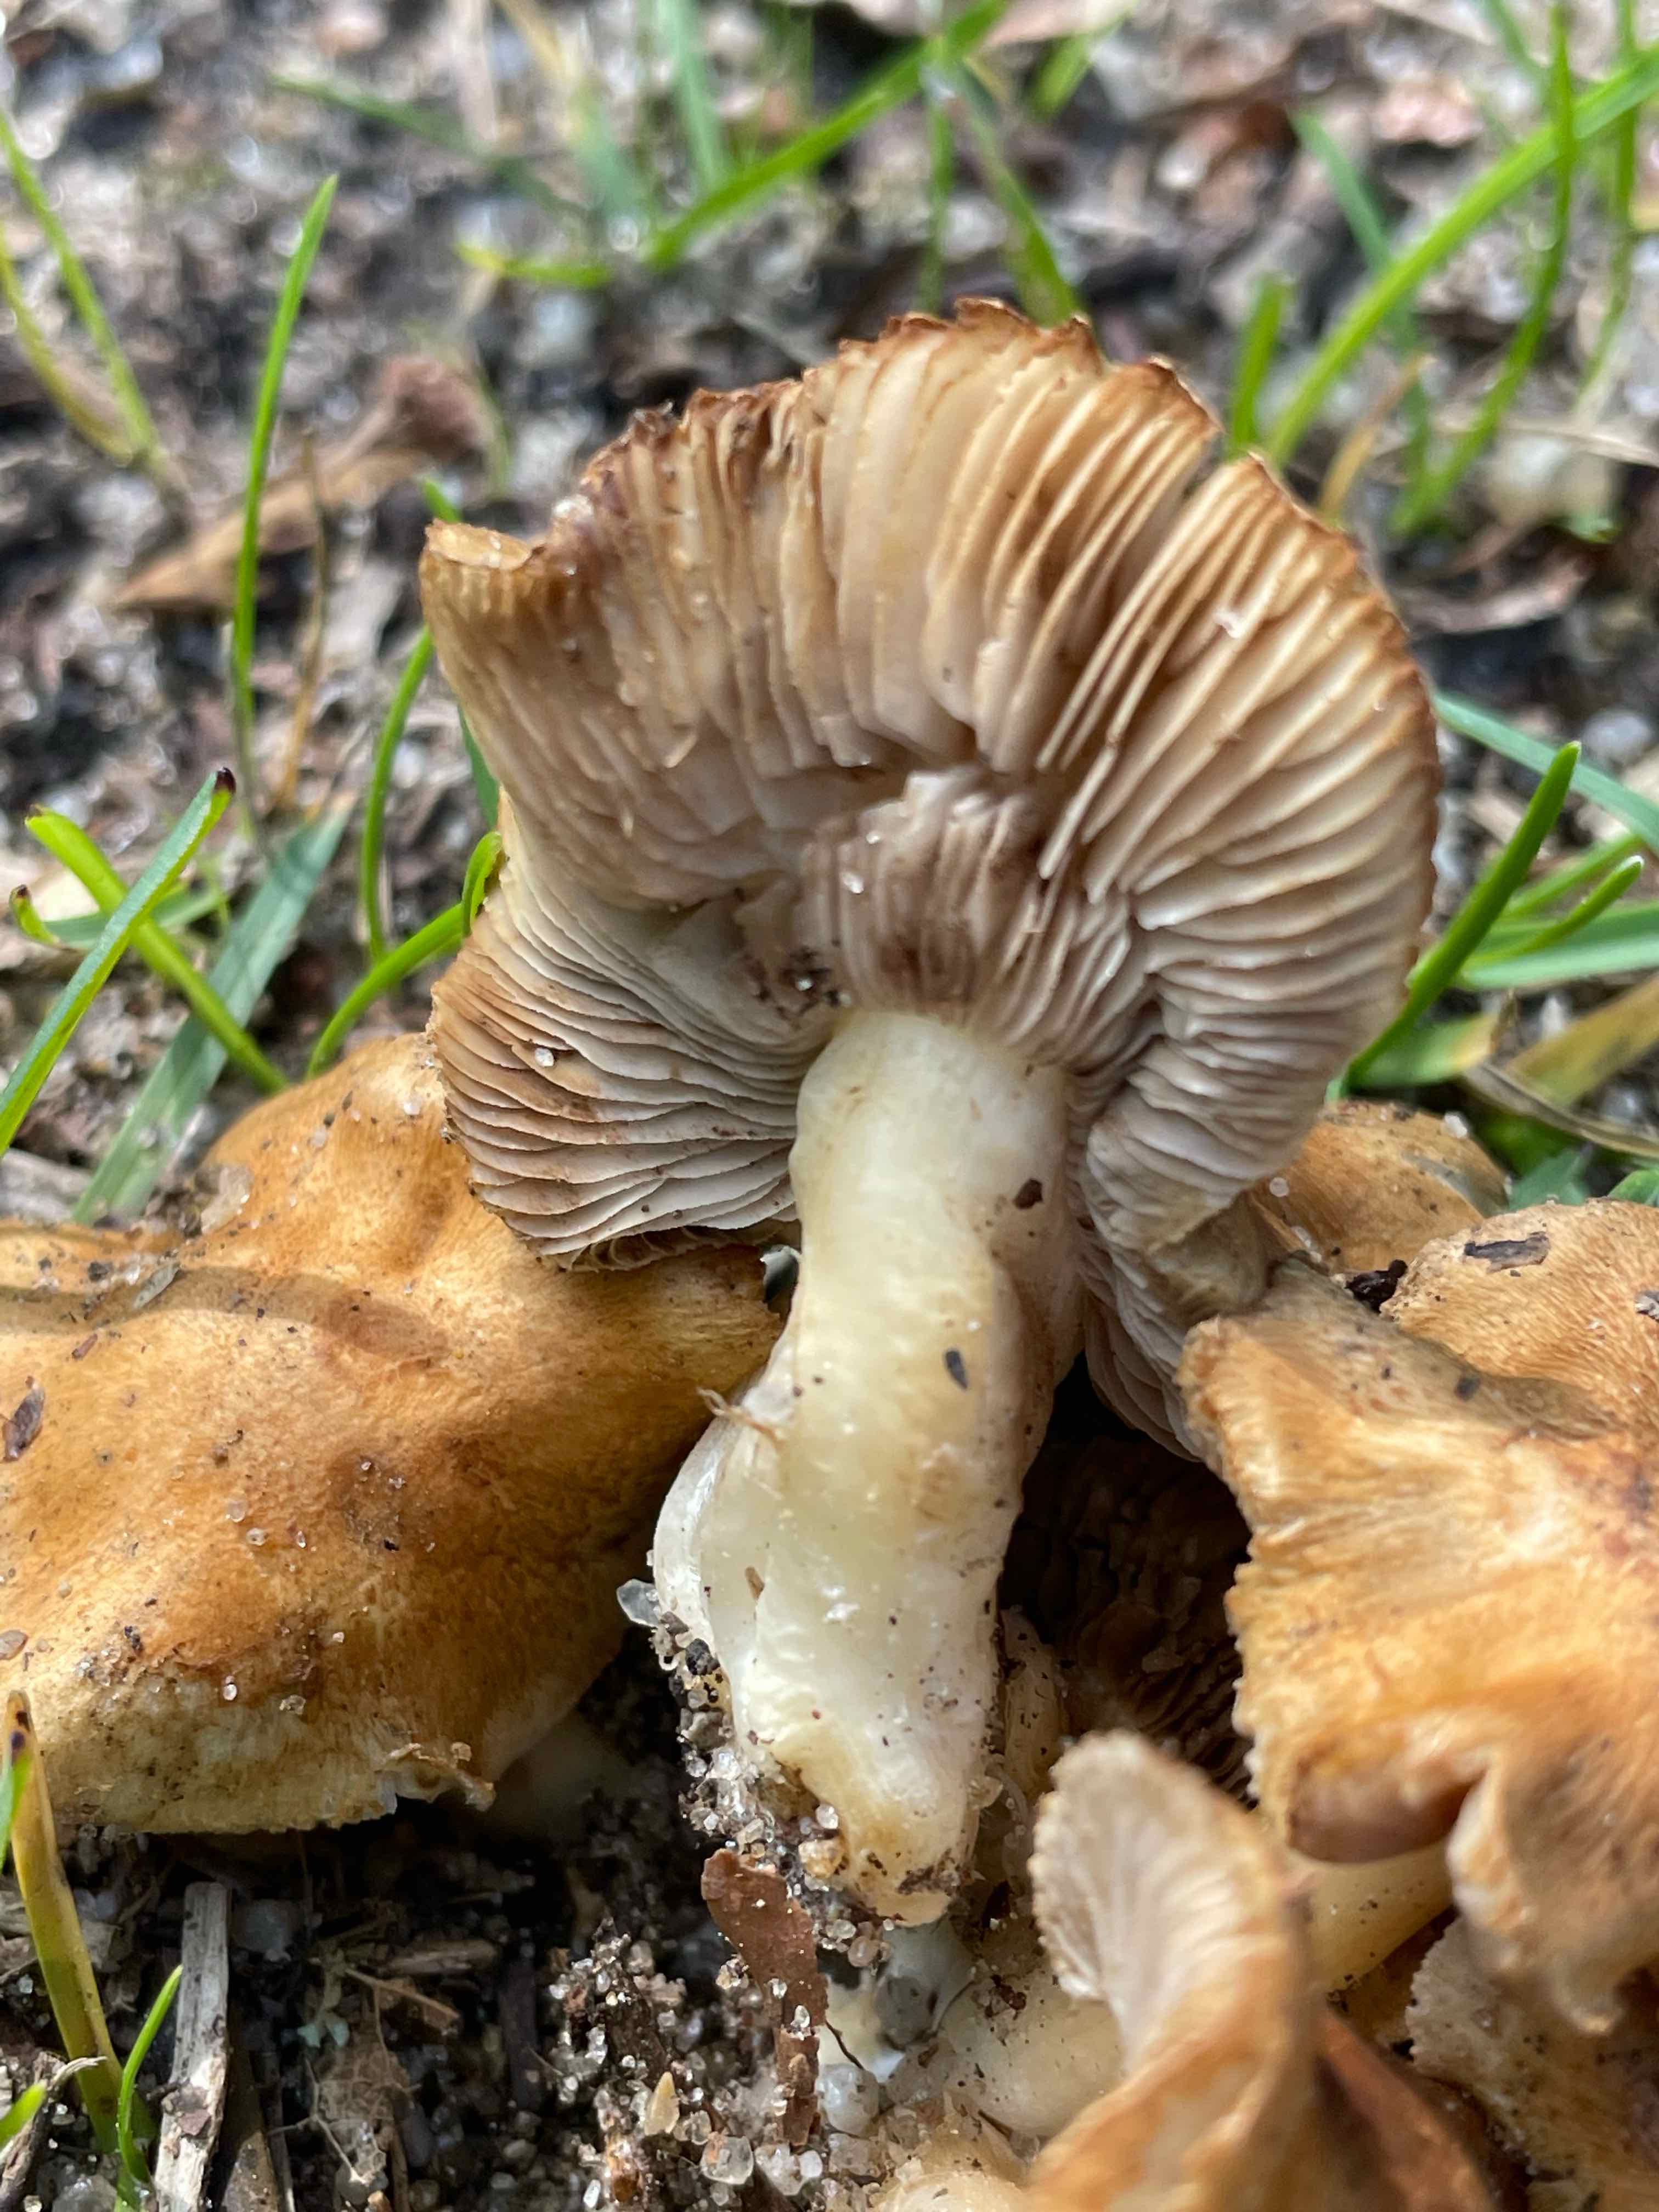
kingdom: Fungi
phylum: Basidiomycota
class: Agaricomycetes
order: Agaricales
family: Inocybaceae
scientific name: Inocybaceae
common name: trævlhatfamilien
